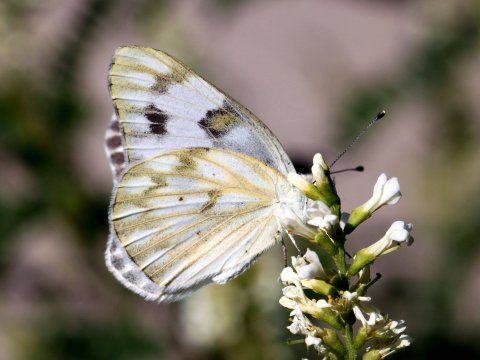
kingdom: Animalia
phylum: Arthropoda
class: Insecta
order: Lepidoptera
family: Pieridae
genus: Pontia
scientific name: Pontia protodice
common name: Checkered White
